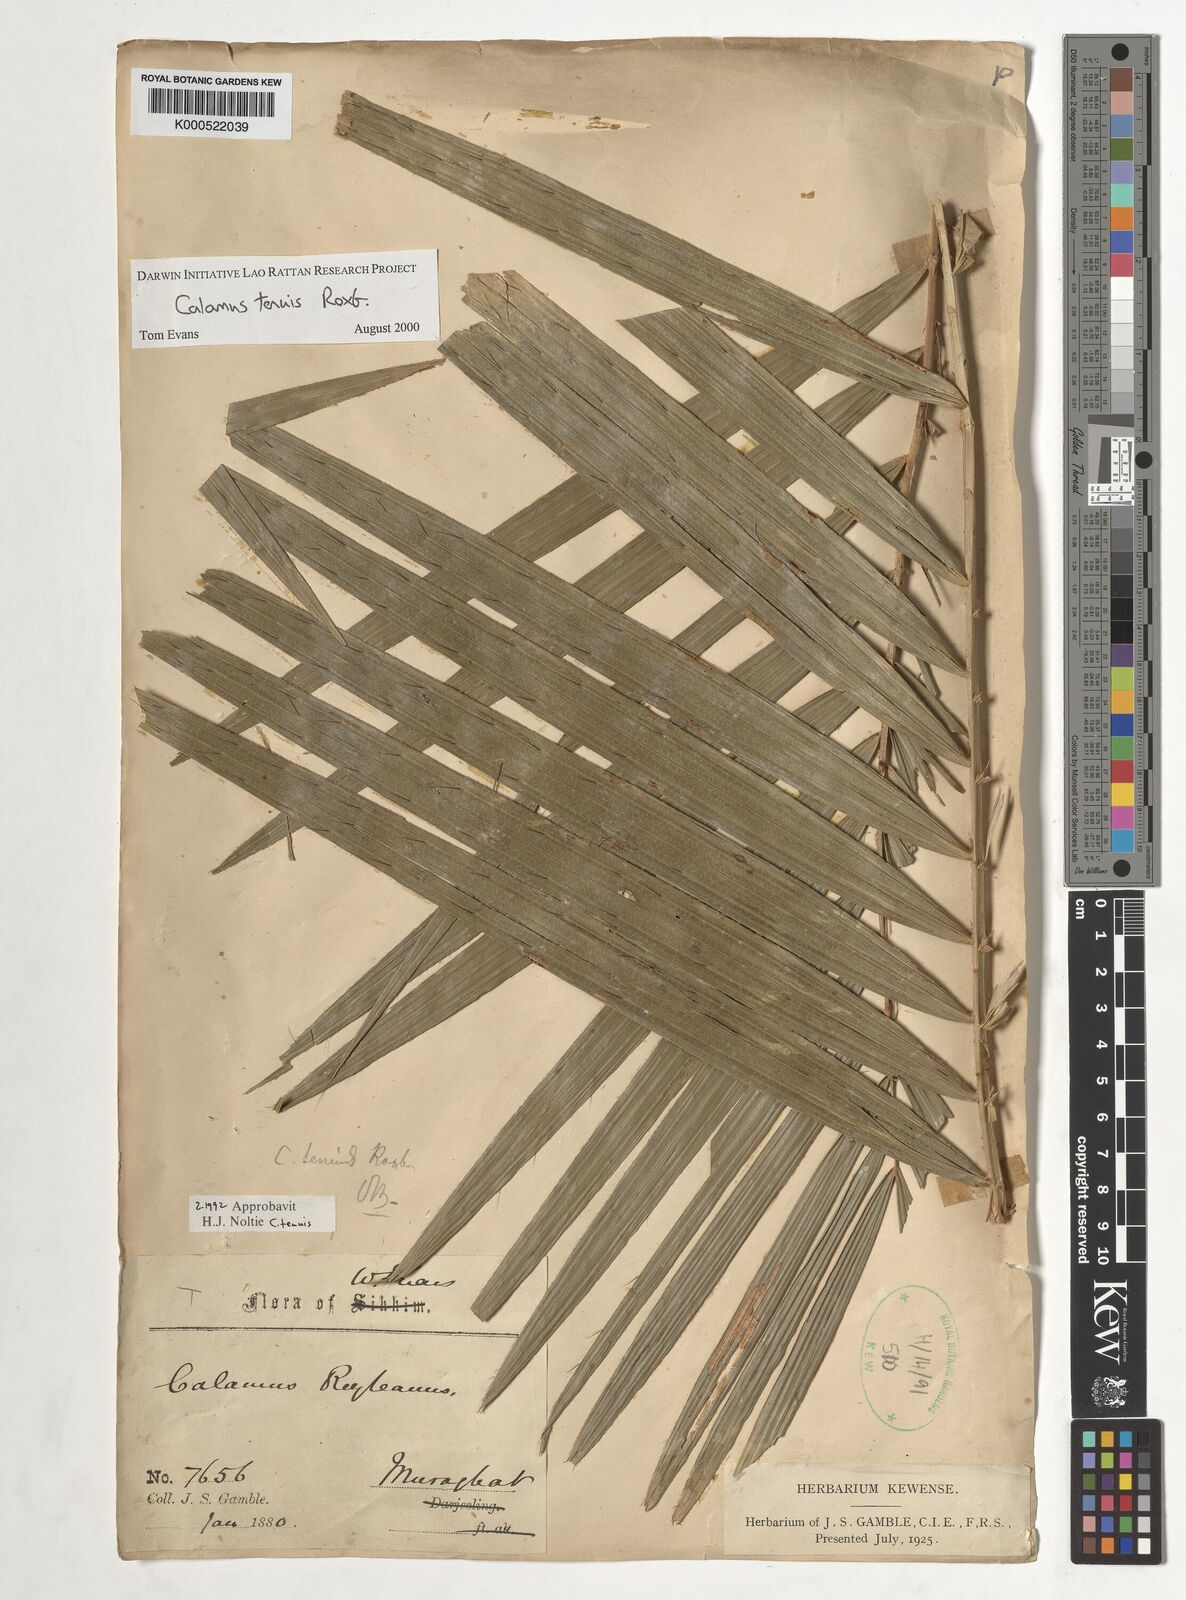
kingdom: Plantae
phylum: Tracheophyta
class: Liliopsida
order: Arecales
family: Arecaceae
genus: Calamus
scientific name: Calamus tenuis
